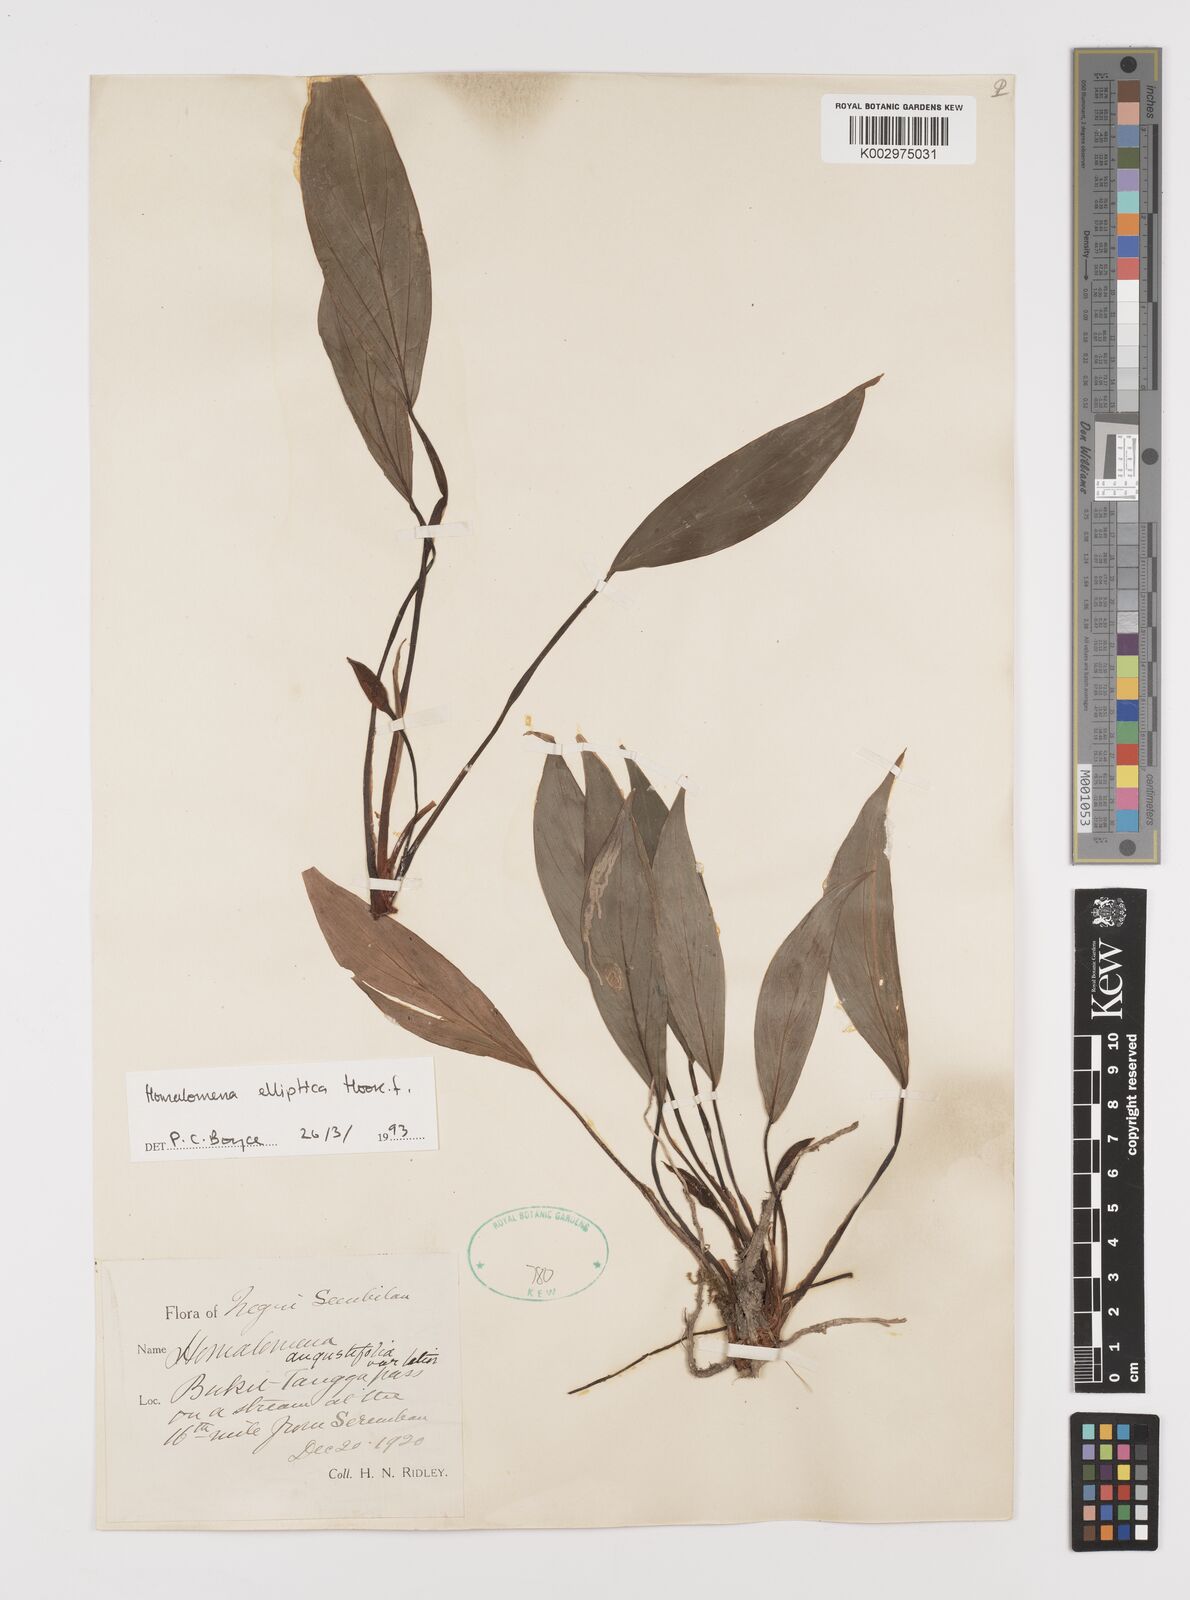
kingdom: Plantae
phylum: Tracheophyta
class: Liliopsida
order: Alismatales
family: Araceae
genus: Homalomena
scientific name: Homalomena griffithii
